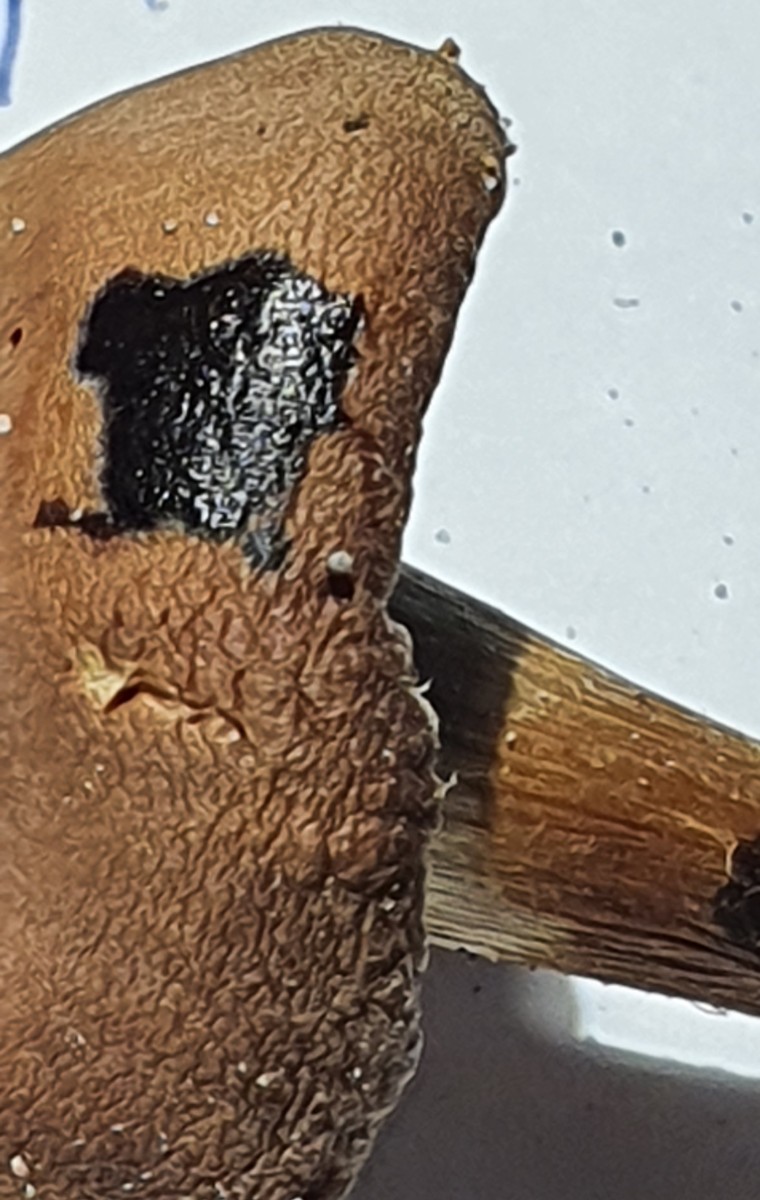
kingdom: Fungi
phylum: Basidiomycota
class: Agaricomycetes
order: Agaricales
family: Cortinariaceae
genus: Cortinarius
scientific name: Cortinarius epipurrus
